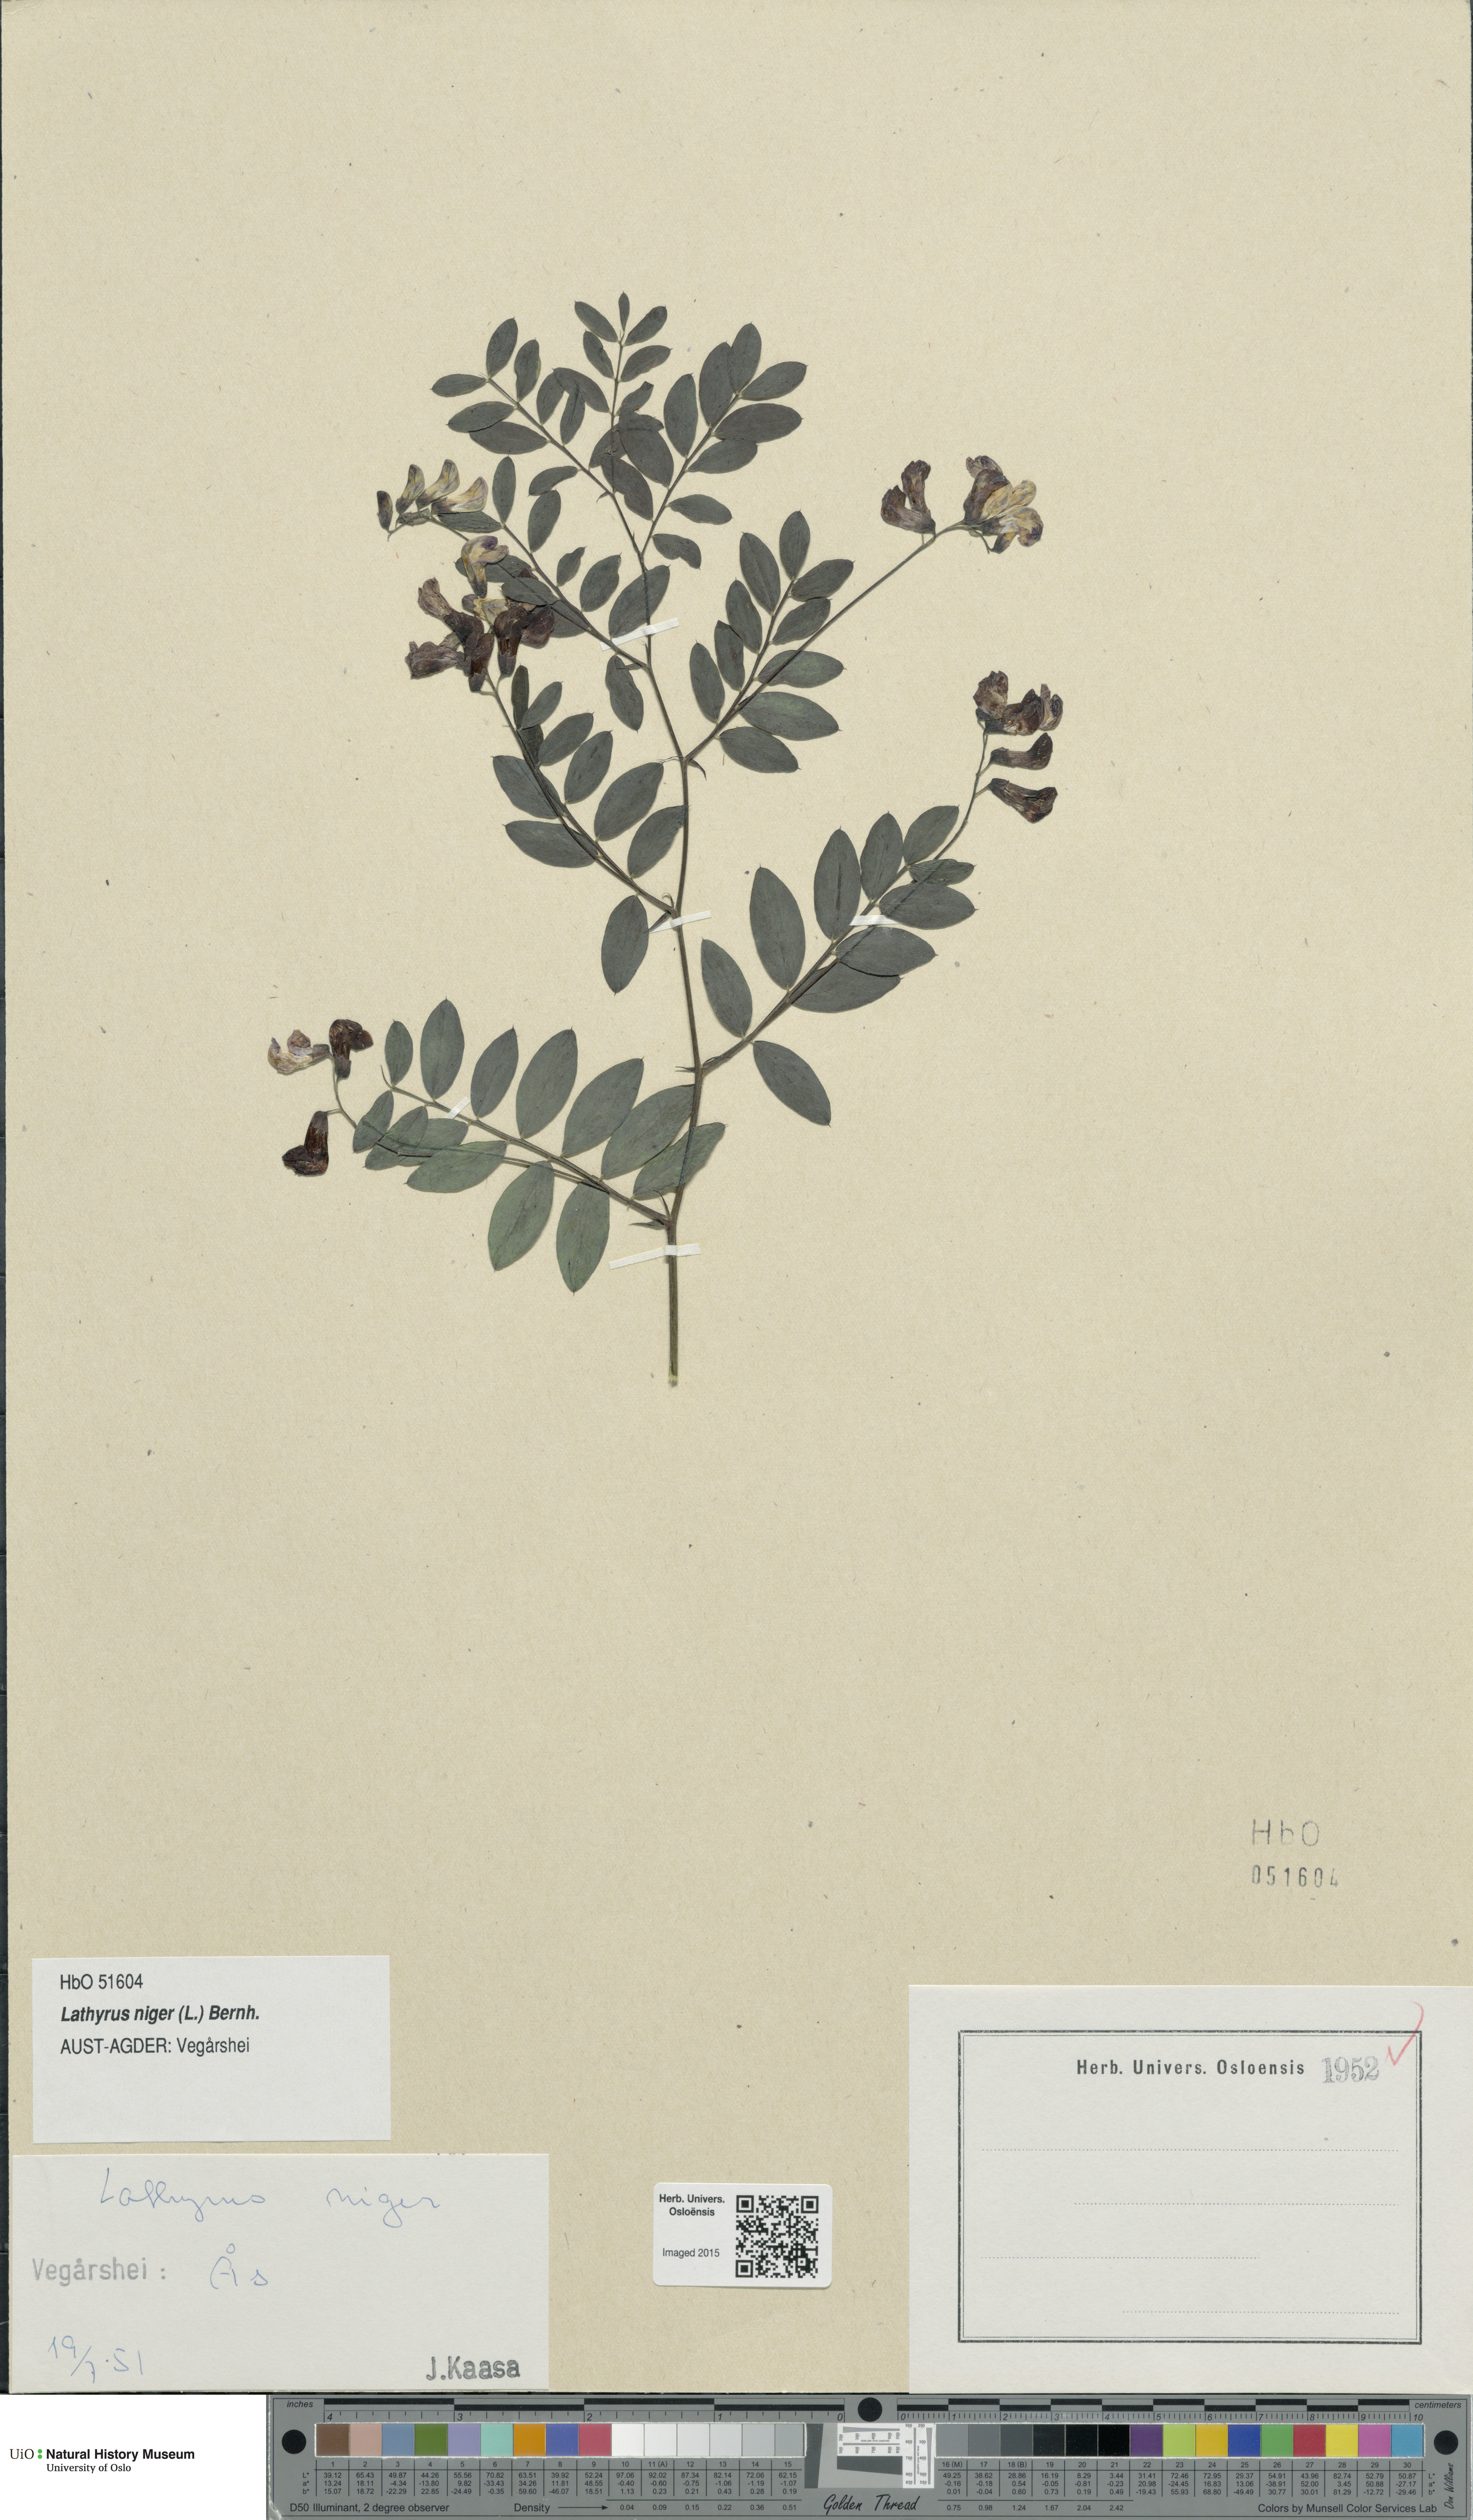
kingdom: Plantae
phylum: Tracheophyta
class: Magnoliopsida
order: Fabales
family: Fabaceae
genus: Lathyrus
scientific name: Lathyrus niger
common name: Black pea
